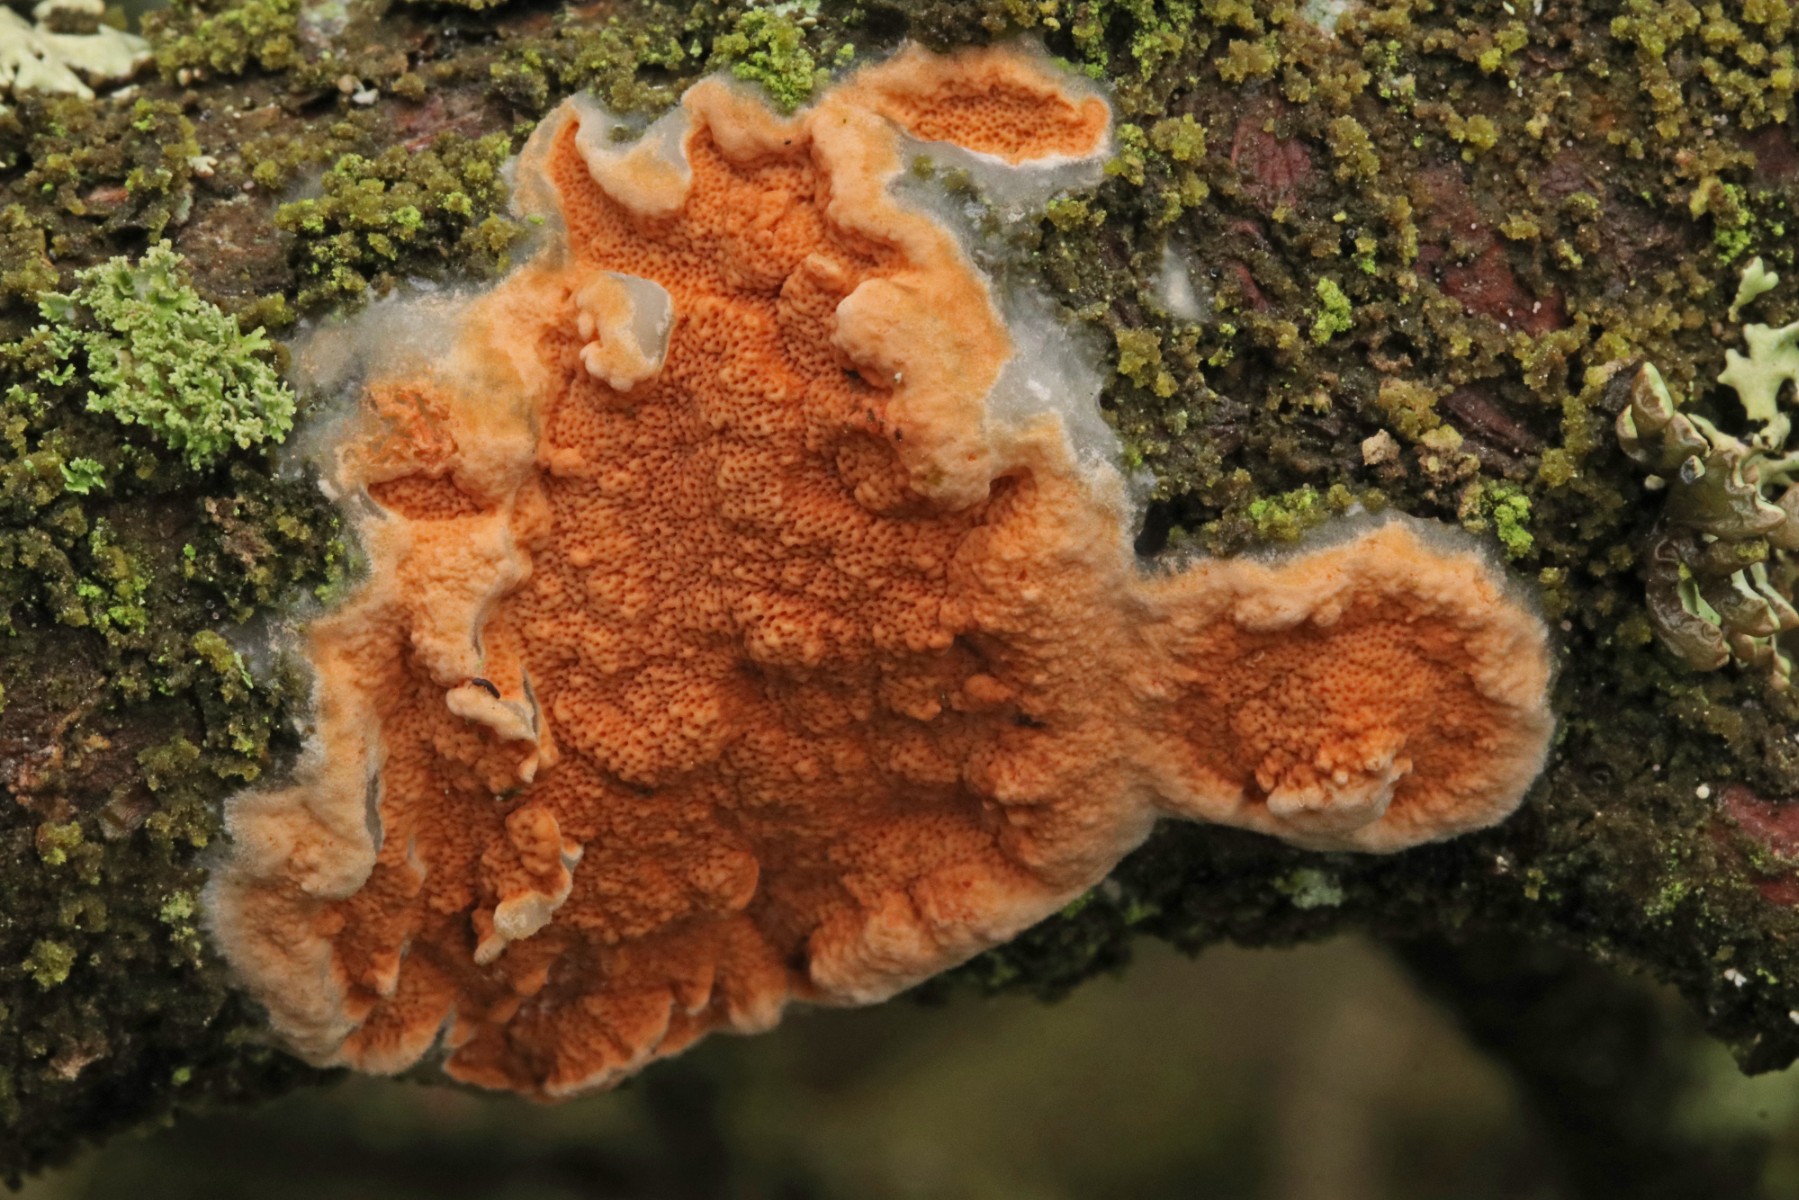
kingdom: Fungi
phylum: Basidiomycota
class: Agaricomycetes
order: Polyporales
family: Irpicaceae
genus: Meruliopsis
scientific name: Meruliopsis taxicola
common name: purpurbrun foldporesvamp
